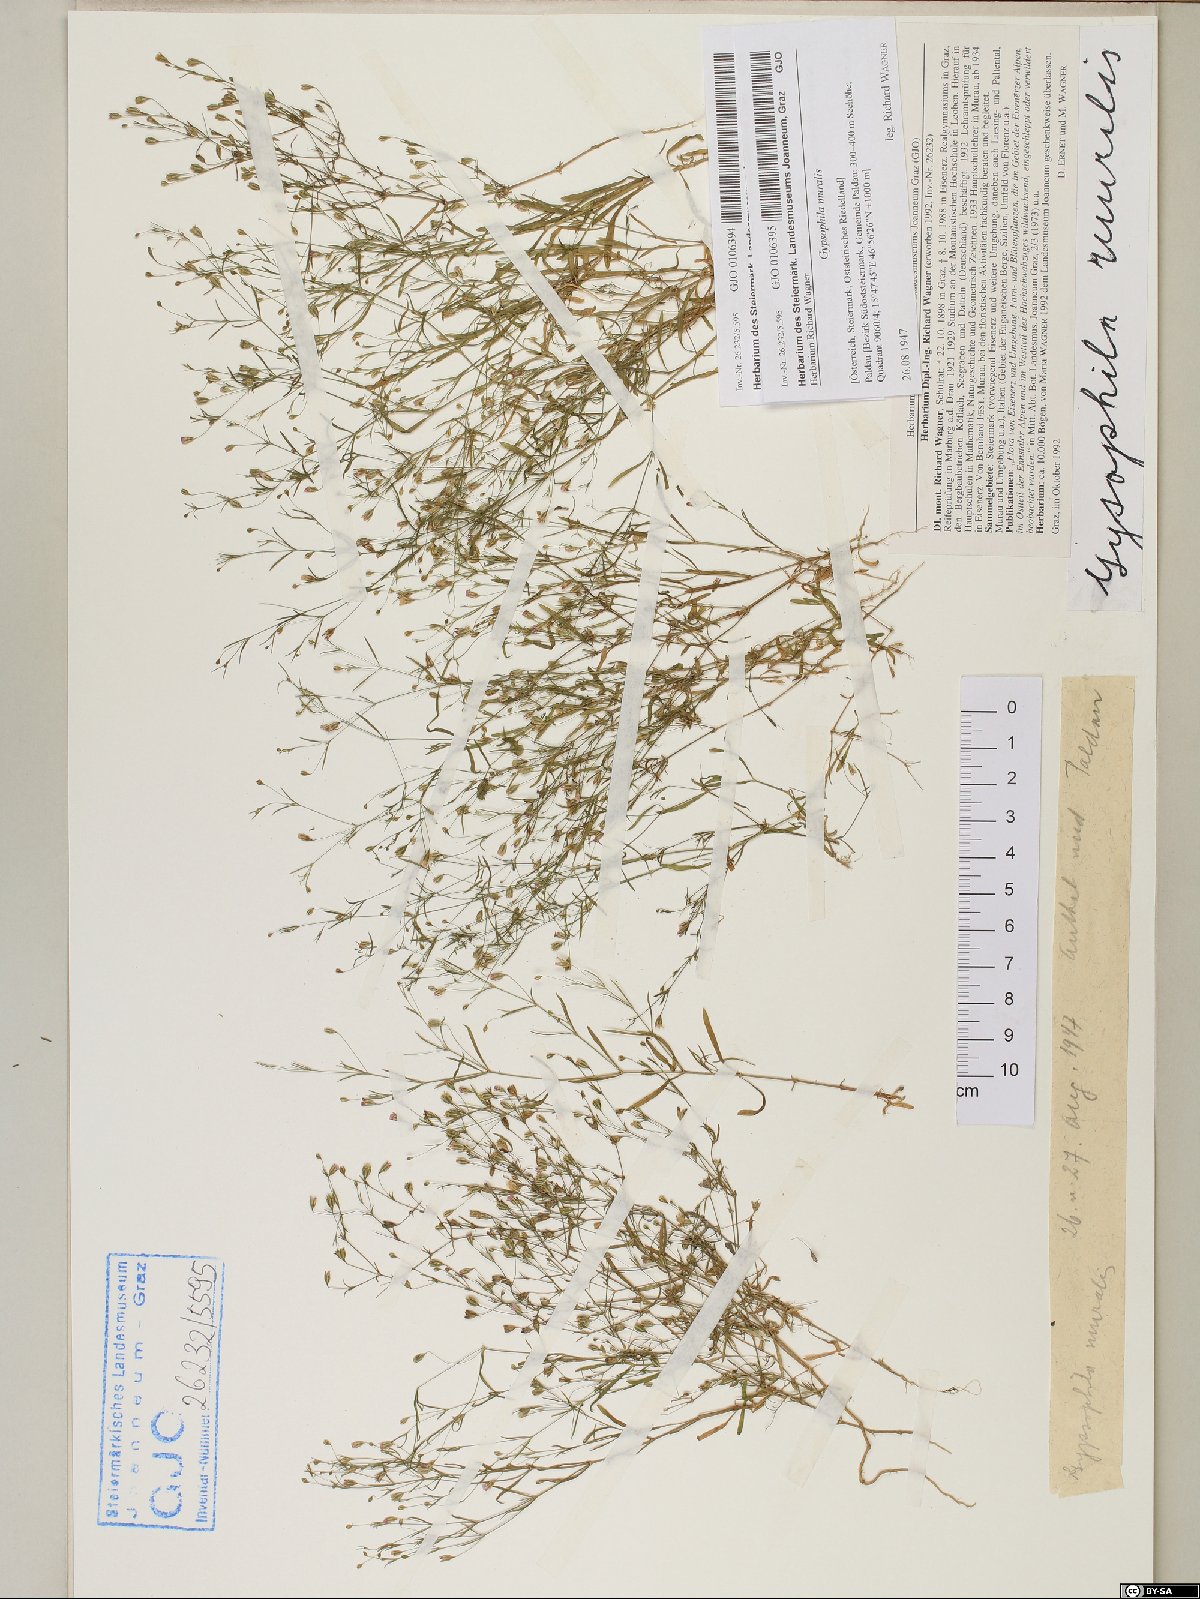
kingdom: Plantae
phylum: Tracheophyta
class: Magnoliopsida
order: Caryophyllales
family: Caryophyllaceae
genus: Psammophiliella
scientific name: Psammophiliella muralis
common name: Cushion baby's-breath
